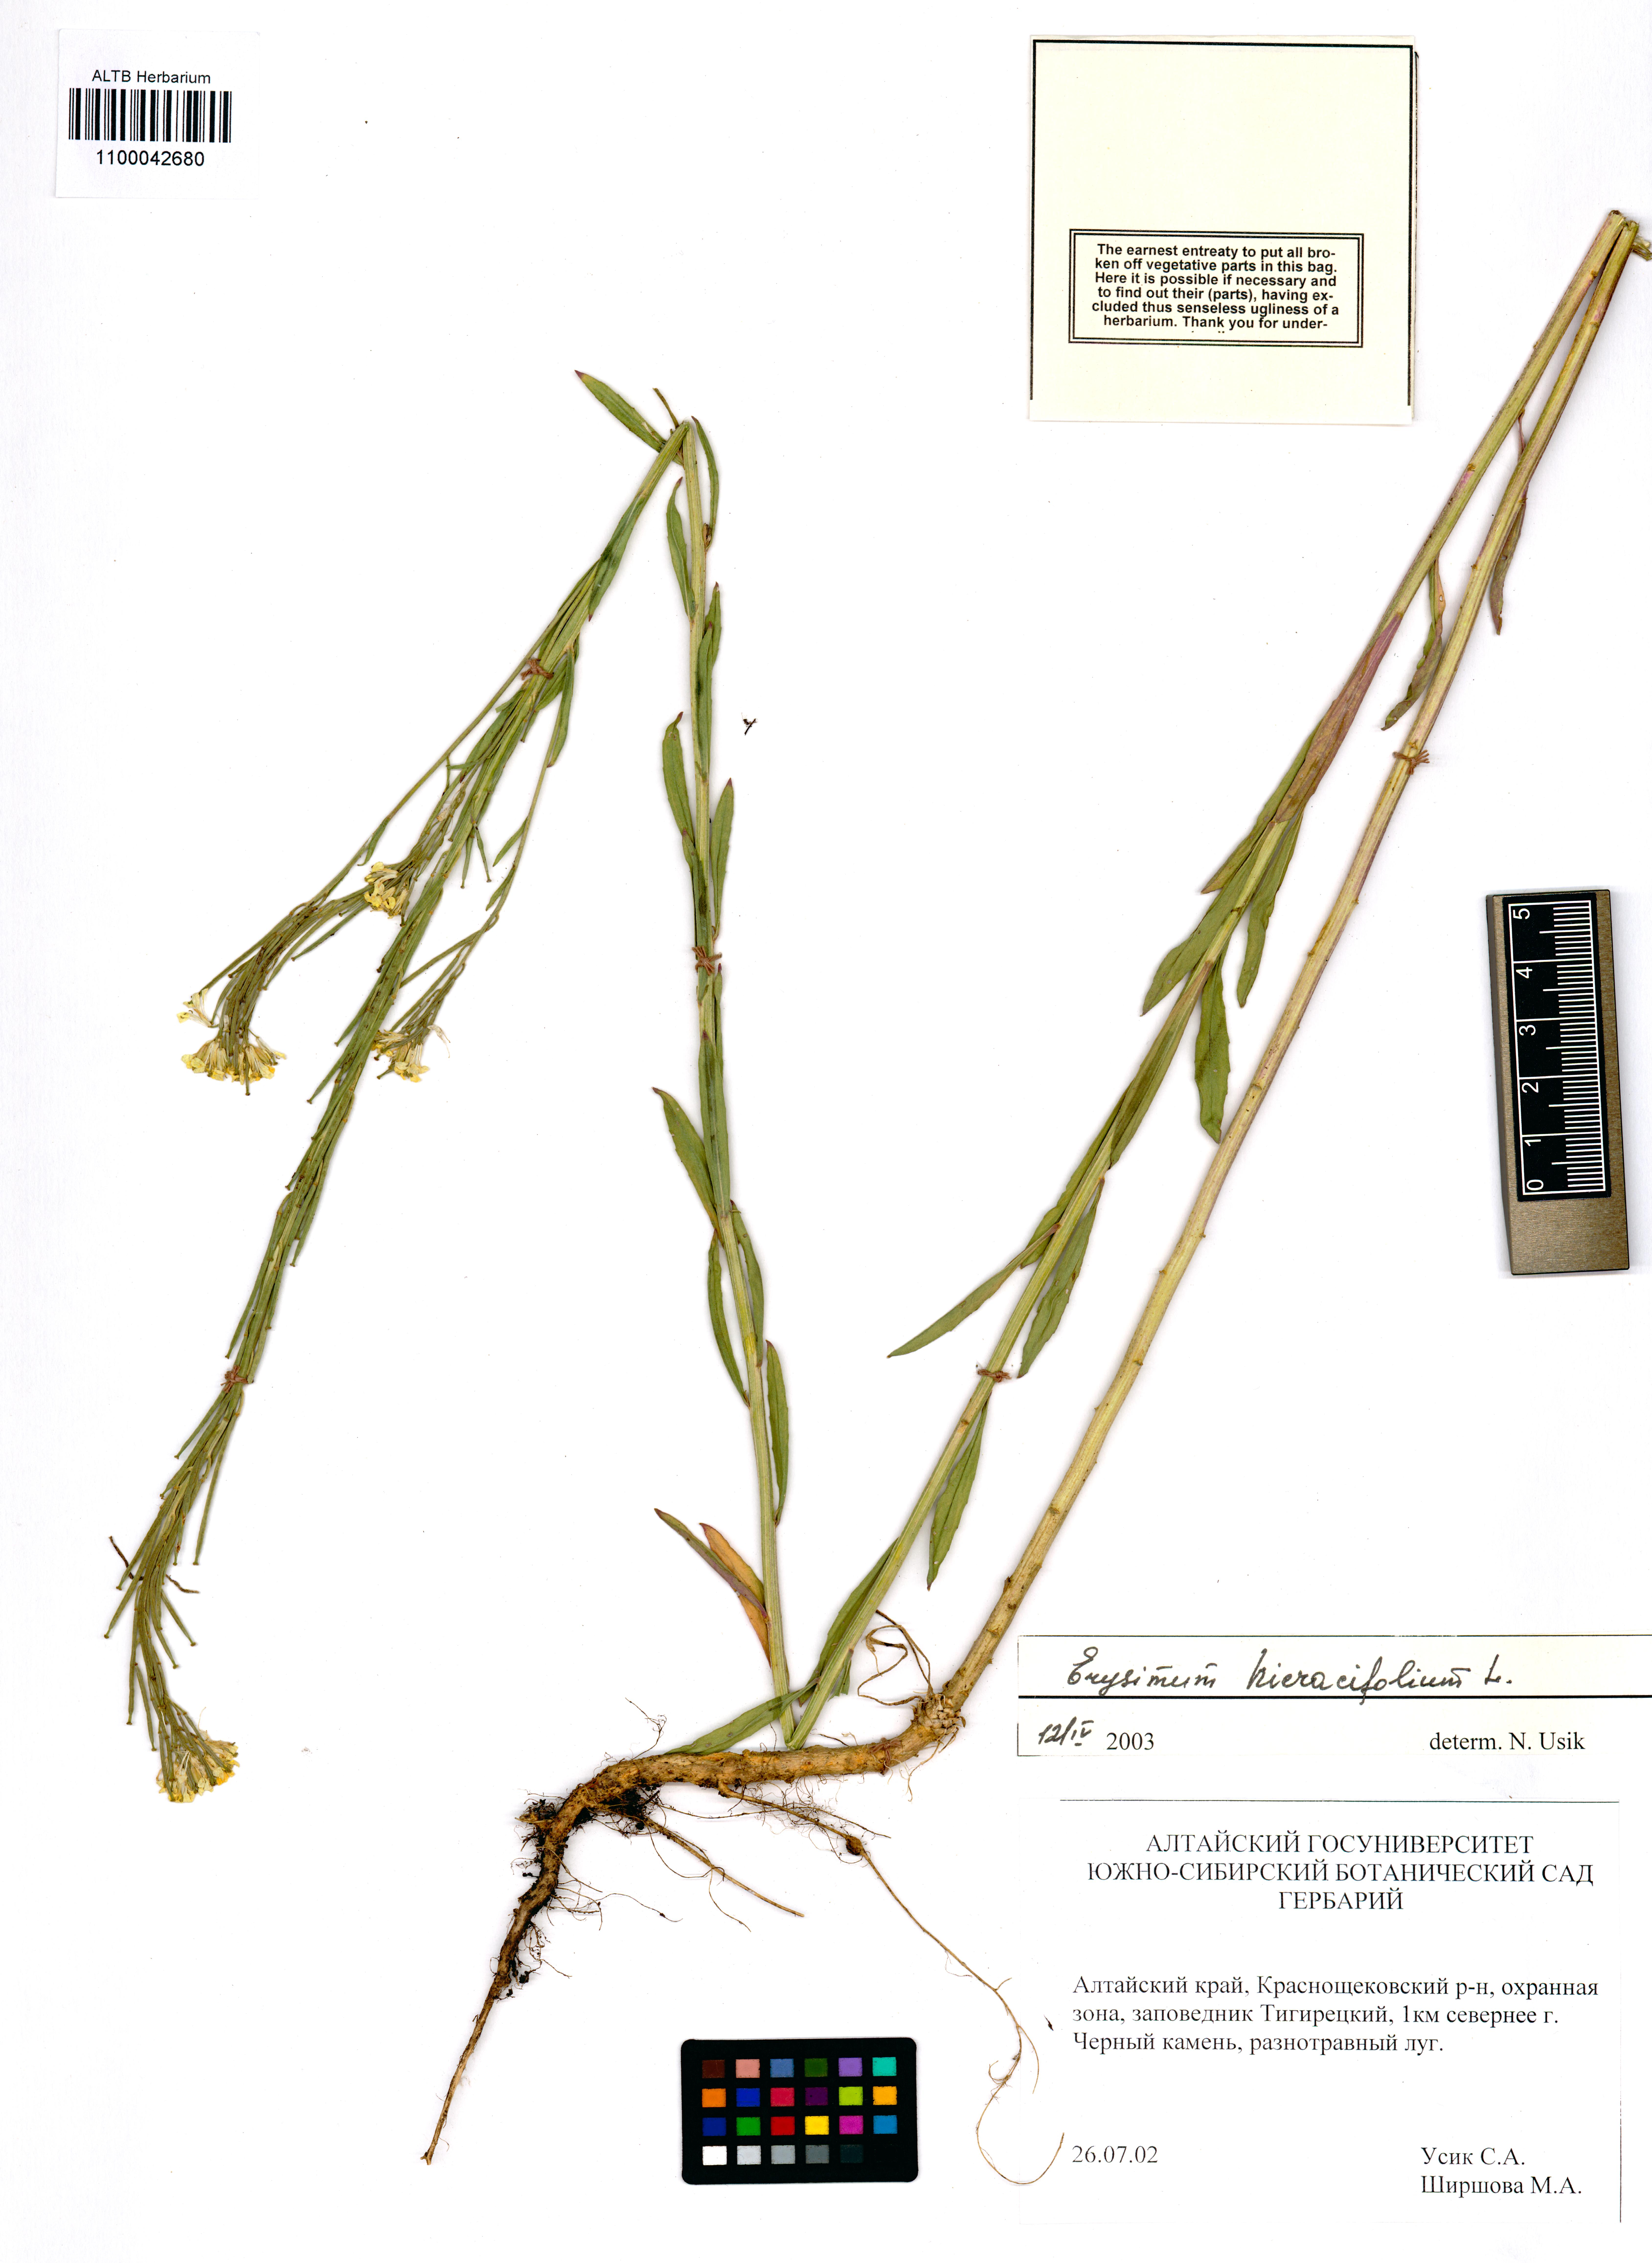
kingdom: Plantae
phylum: Tracheophyta
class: Magnoliopsida
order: Brassicales
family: Brassicaceae
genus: Erysimum
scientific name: Erysimum hieraciifolium
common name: European wallflower
